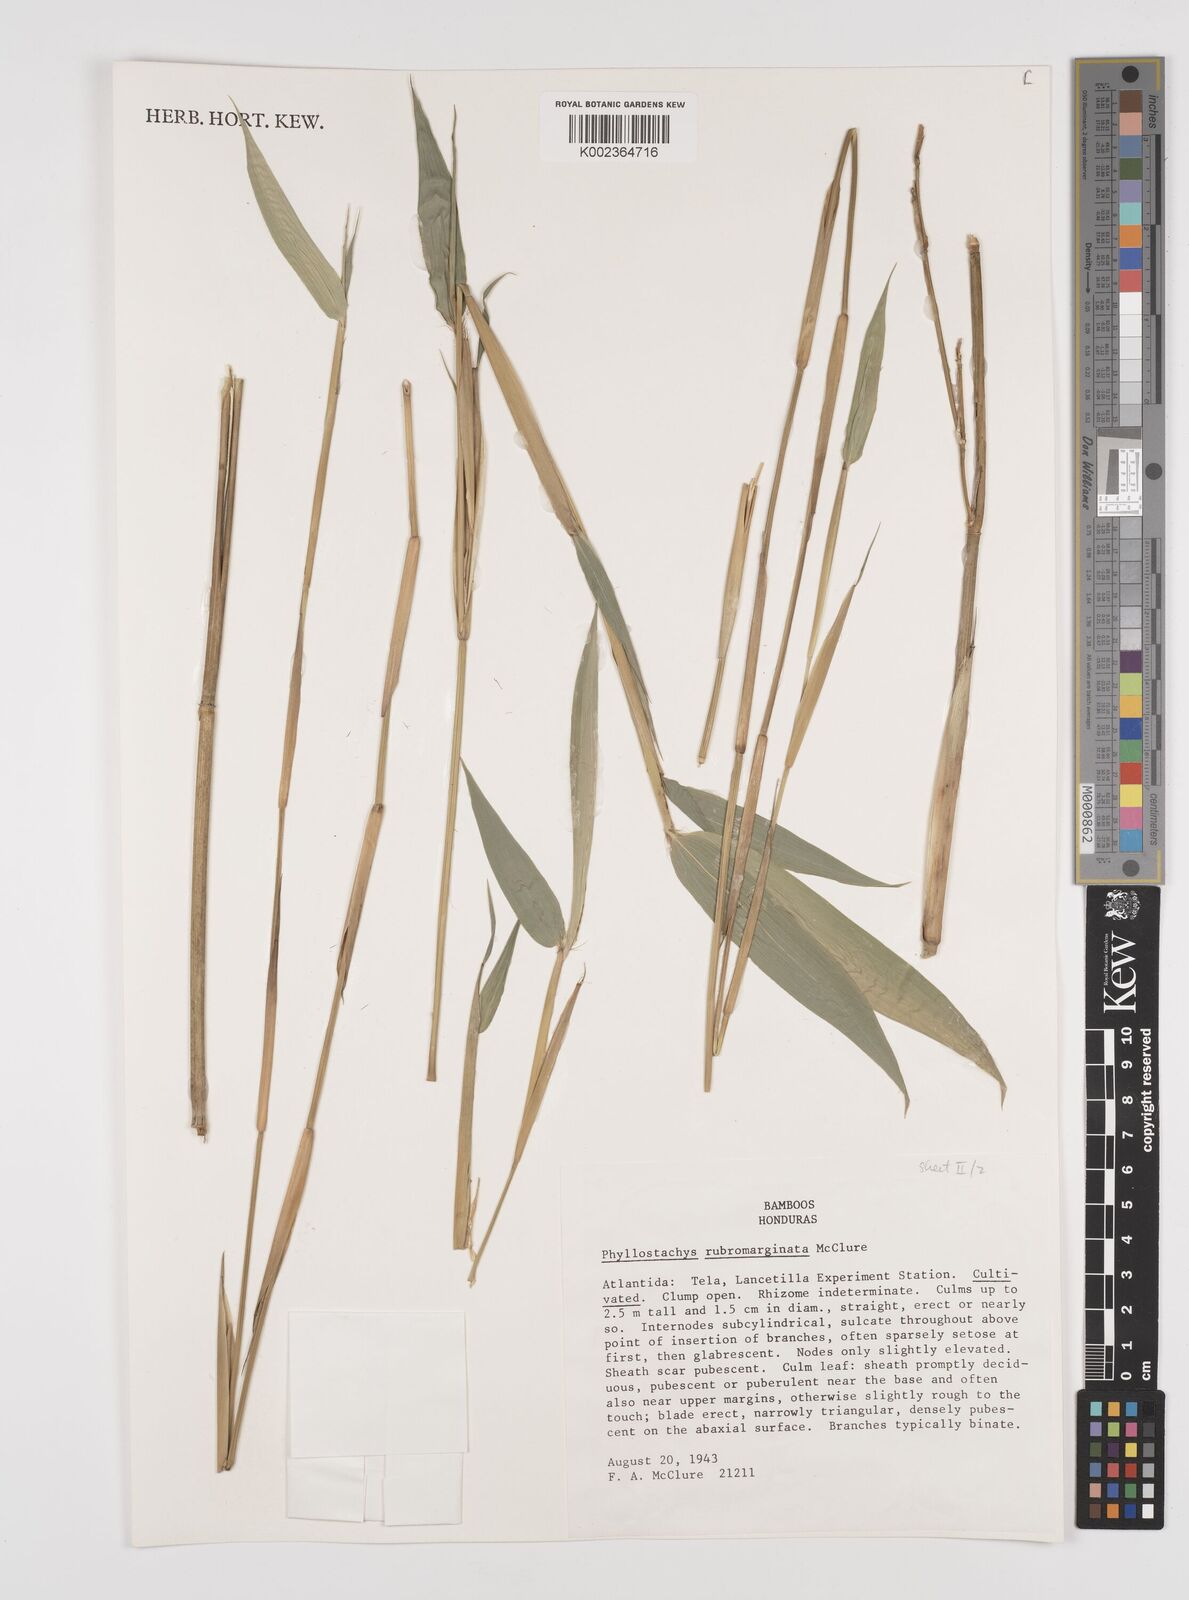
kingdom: Plantae
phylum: Tracheophyta
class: Liliopsida
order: Poales
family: Poaceae
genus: Phyllostachys
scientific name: Phyllostachys rubromarginata
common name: Reddish bamboo
